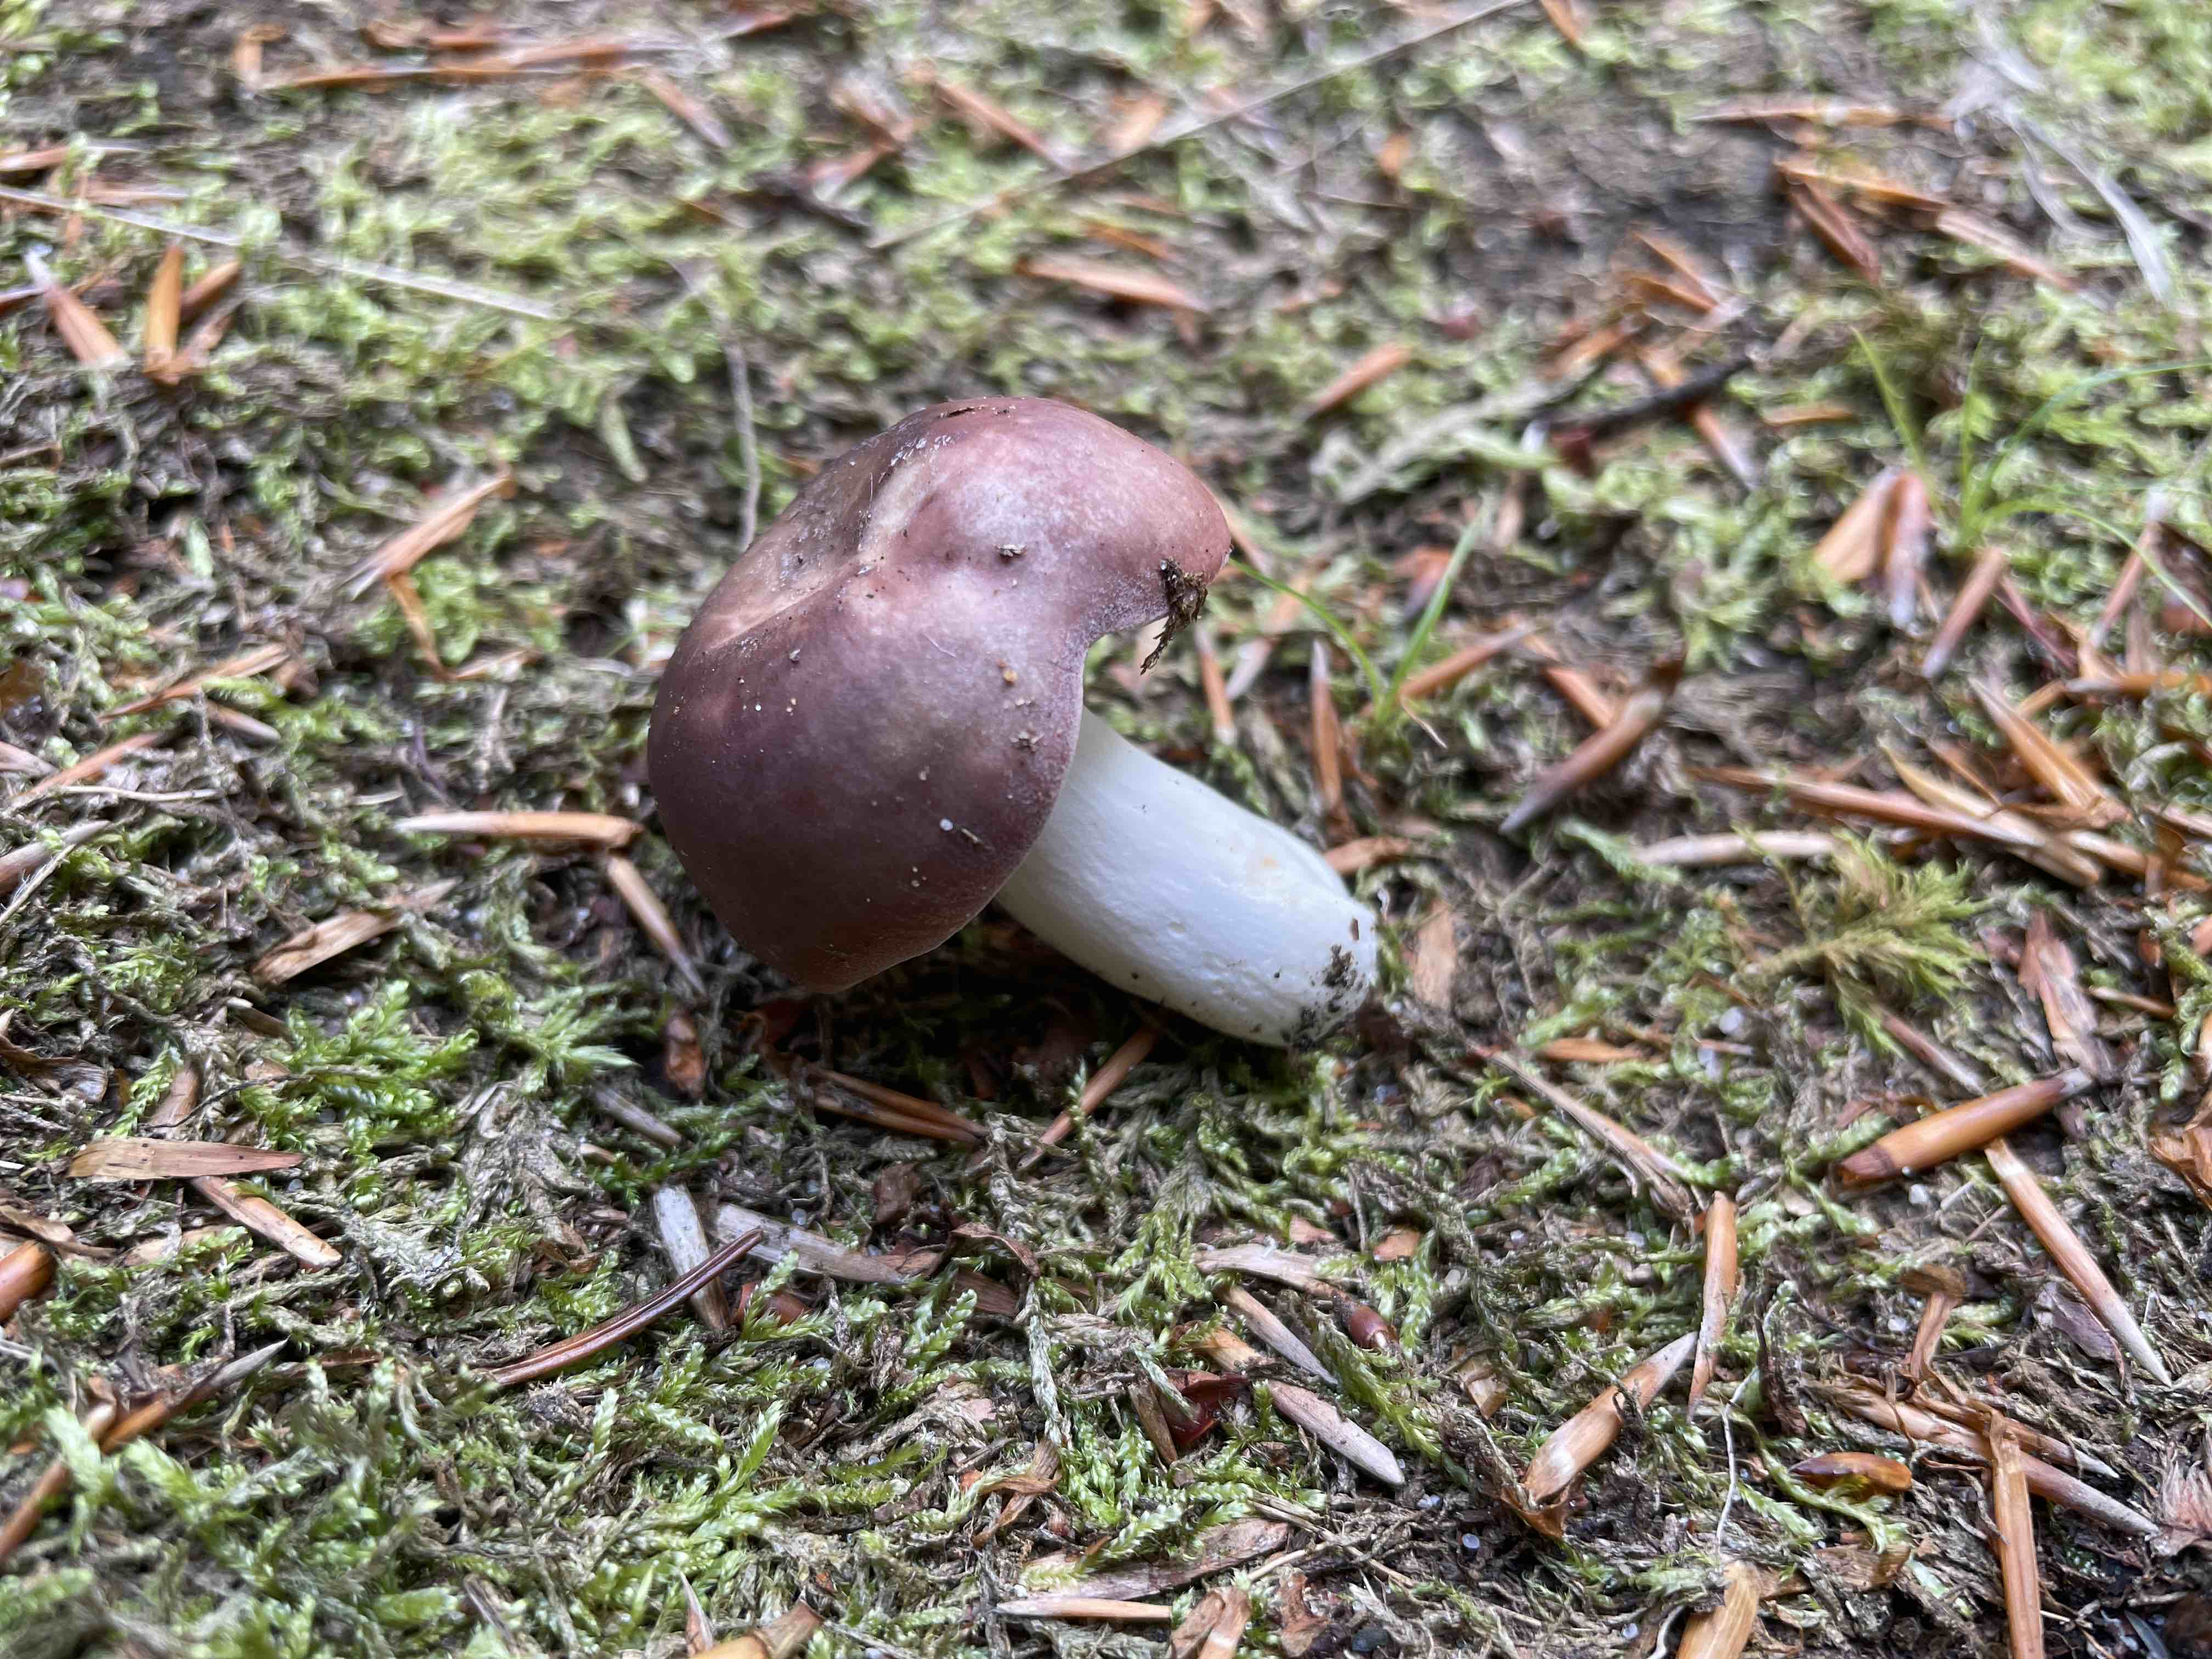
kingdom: Fungi
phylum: Basidiomycota
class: Agaricomycetes
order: Russulales
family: Russulaceae
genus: Russula
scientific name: Russula vesca
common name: spiselig skørhat
